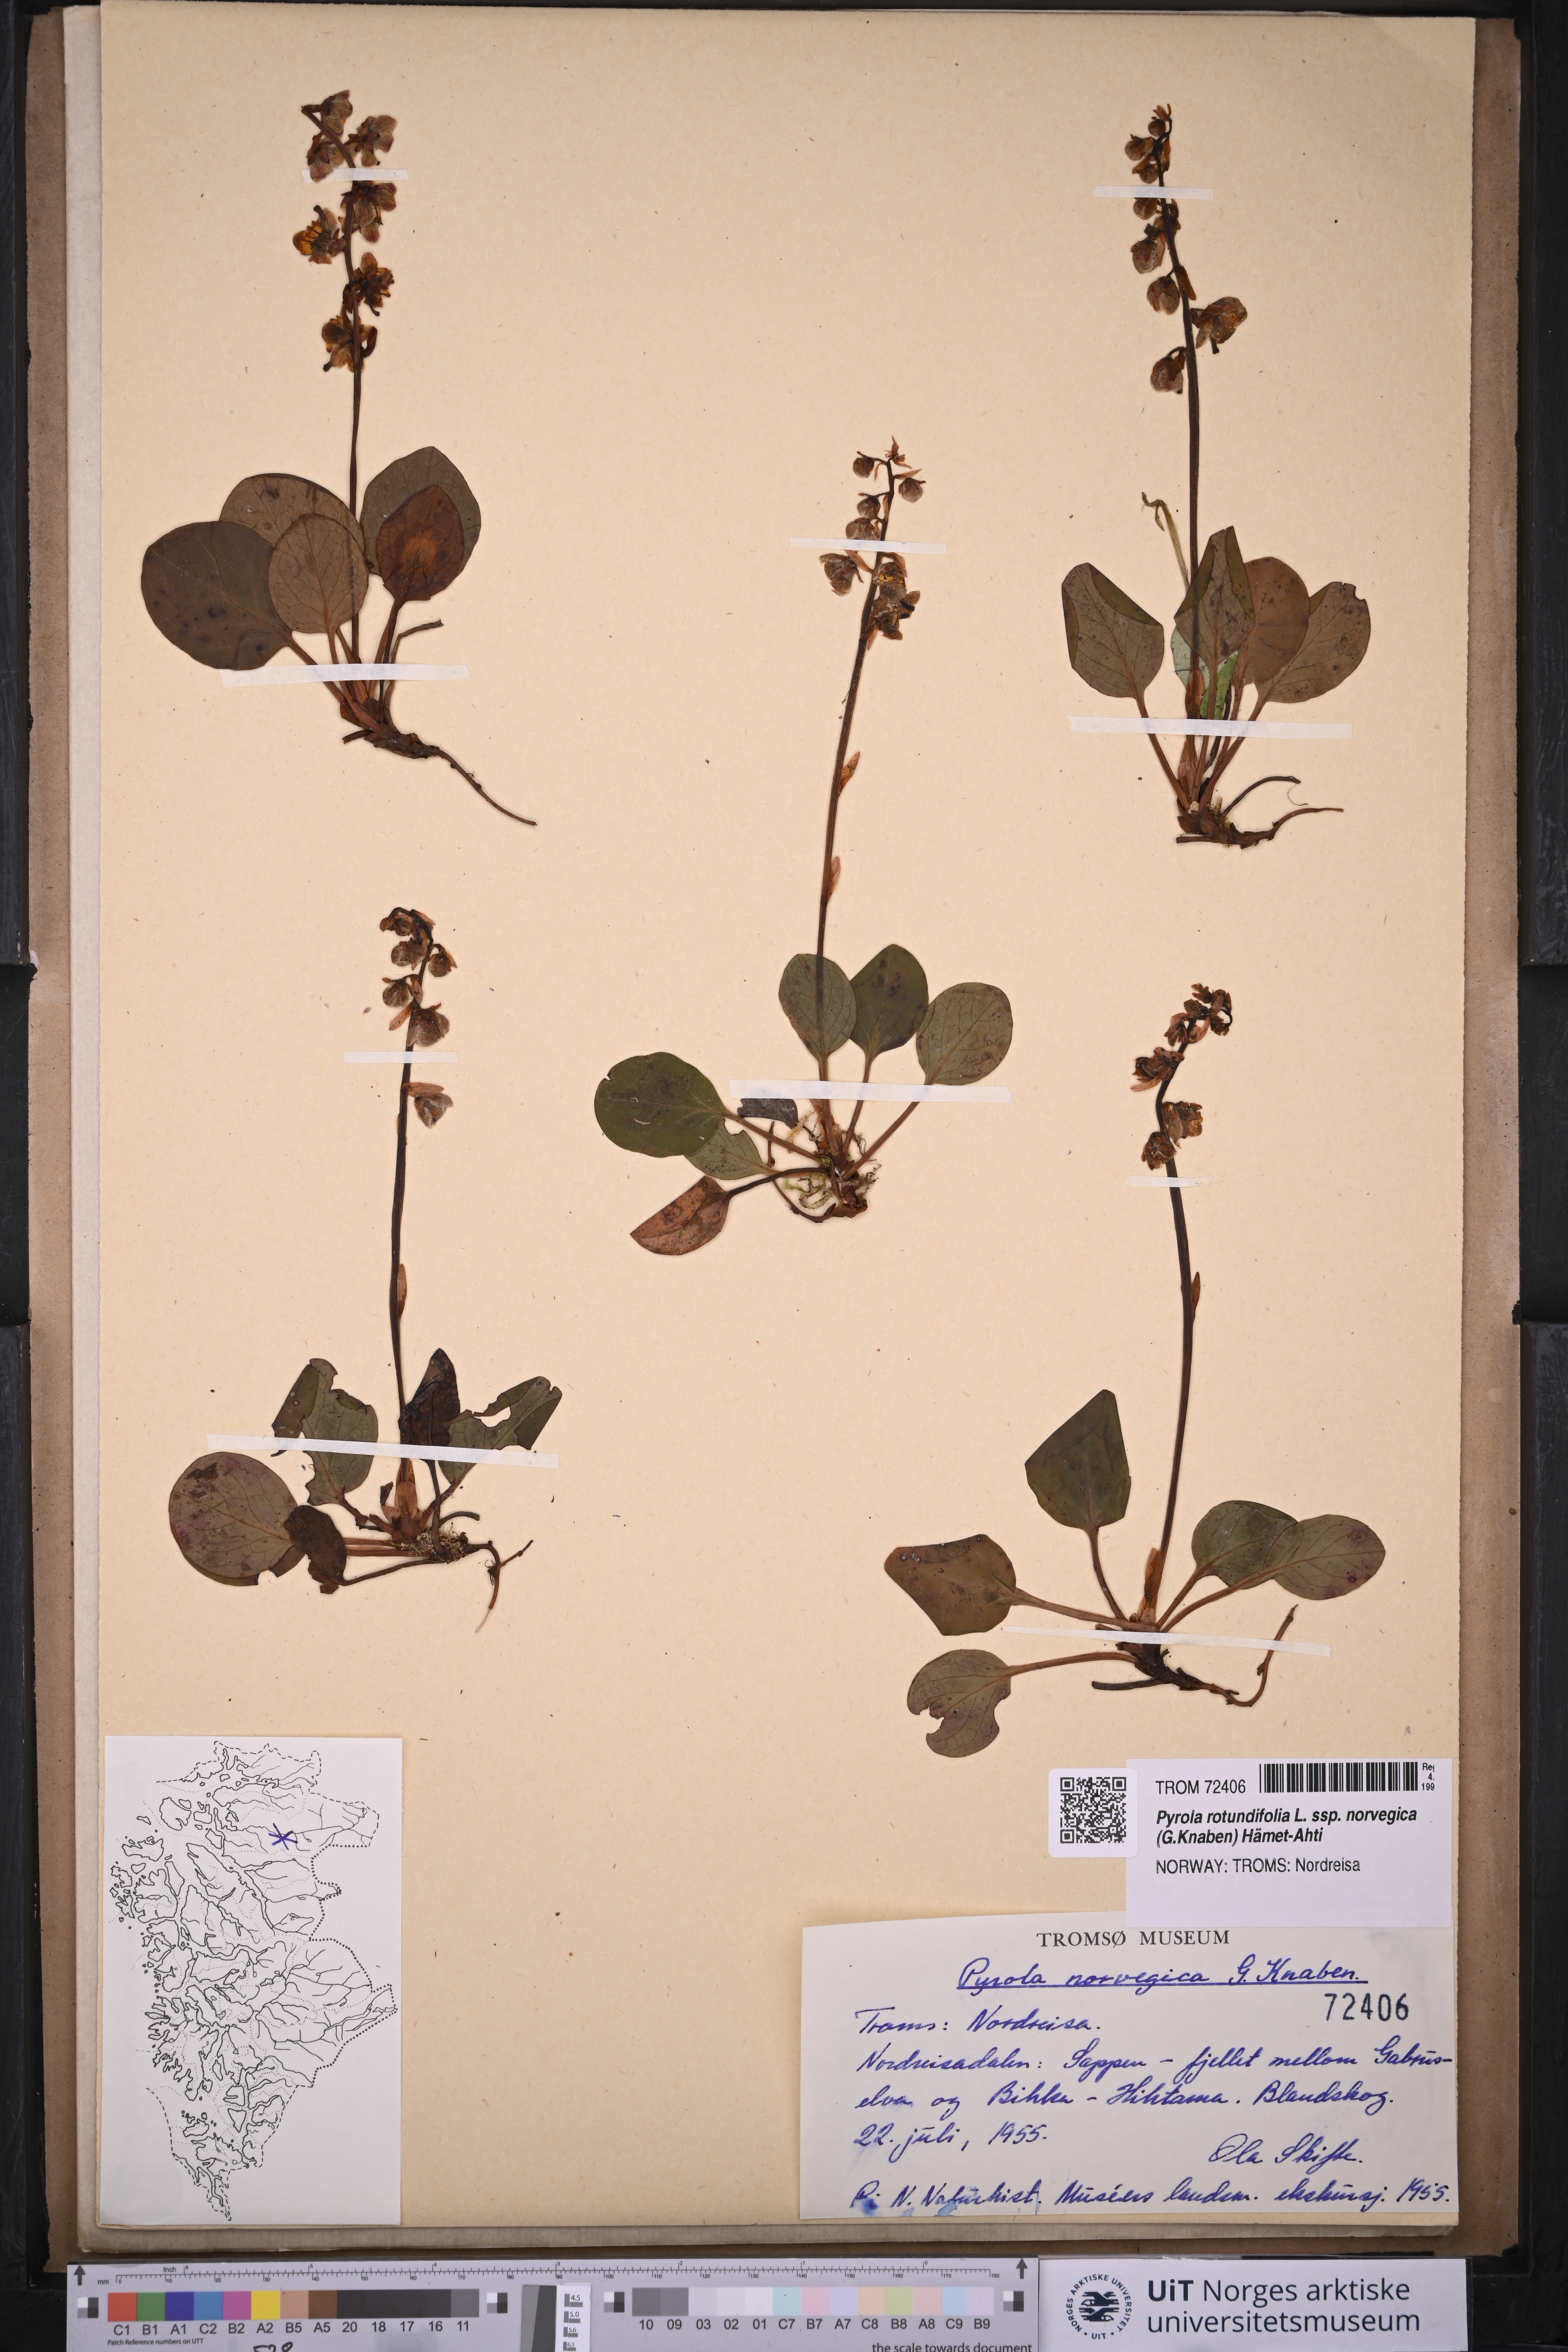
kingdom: Plantae
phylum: Tracheophyta
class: Magnoliopsida
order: Ericales
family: Ericaceae
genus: Pyrola
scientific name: Pyrola rotundifolia
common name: Round-leaved wintergreen
